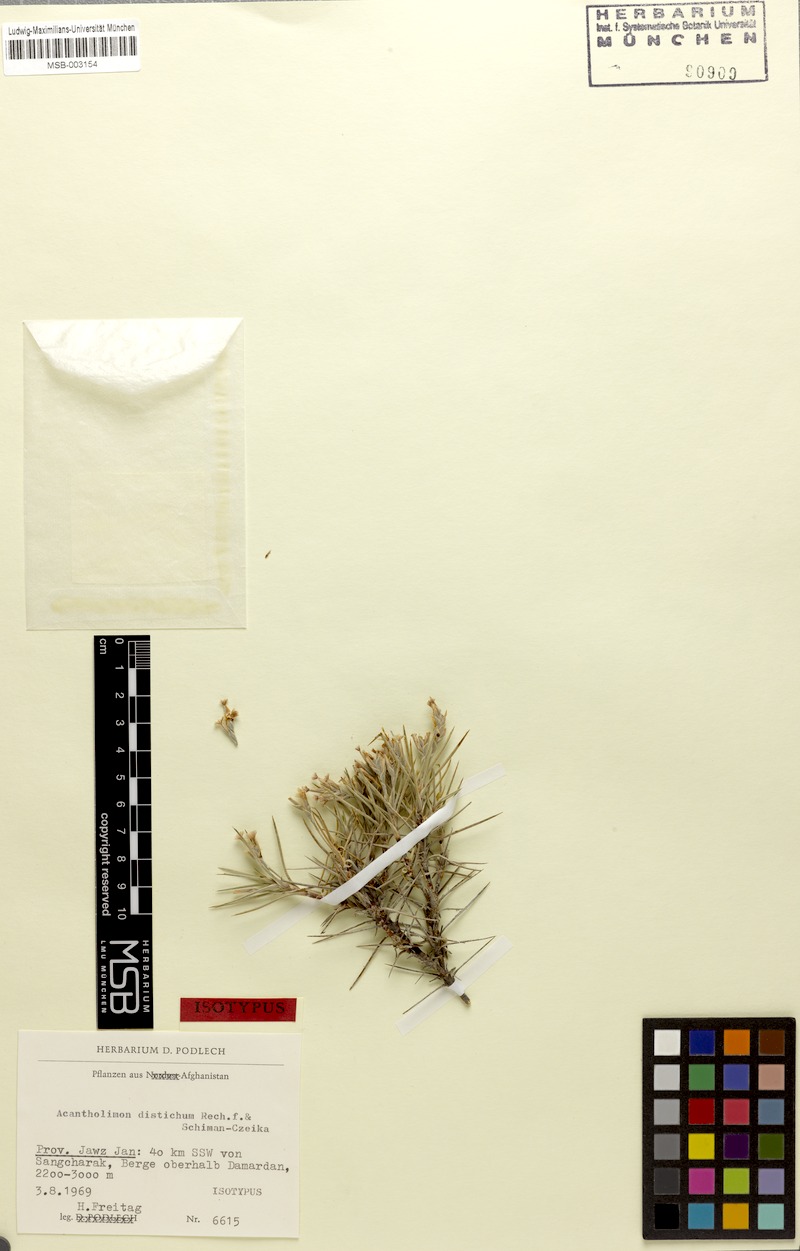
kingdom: Plantae
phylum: Tracheophyta
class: Magnoliopsida
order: Caryophyllales
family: Plumbaginaceae
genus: Acantholimon
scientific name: Acantholimon distichum
